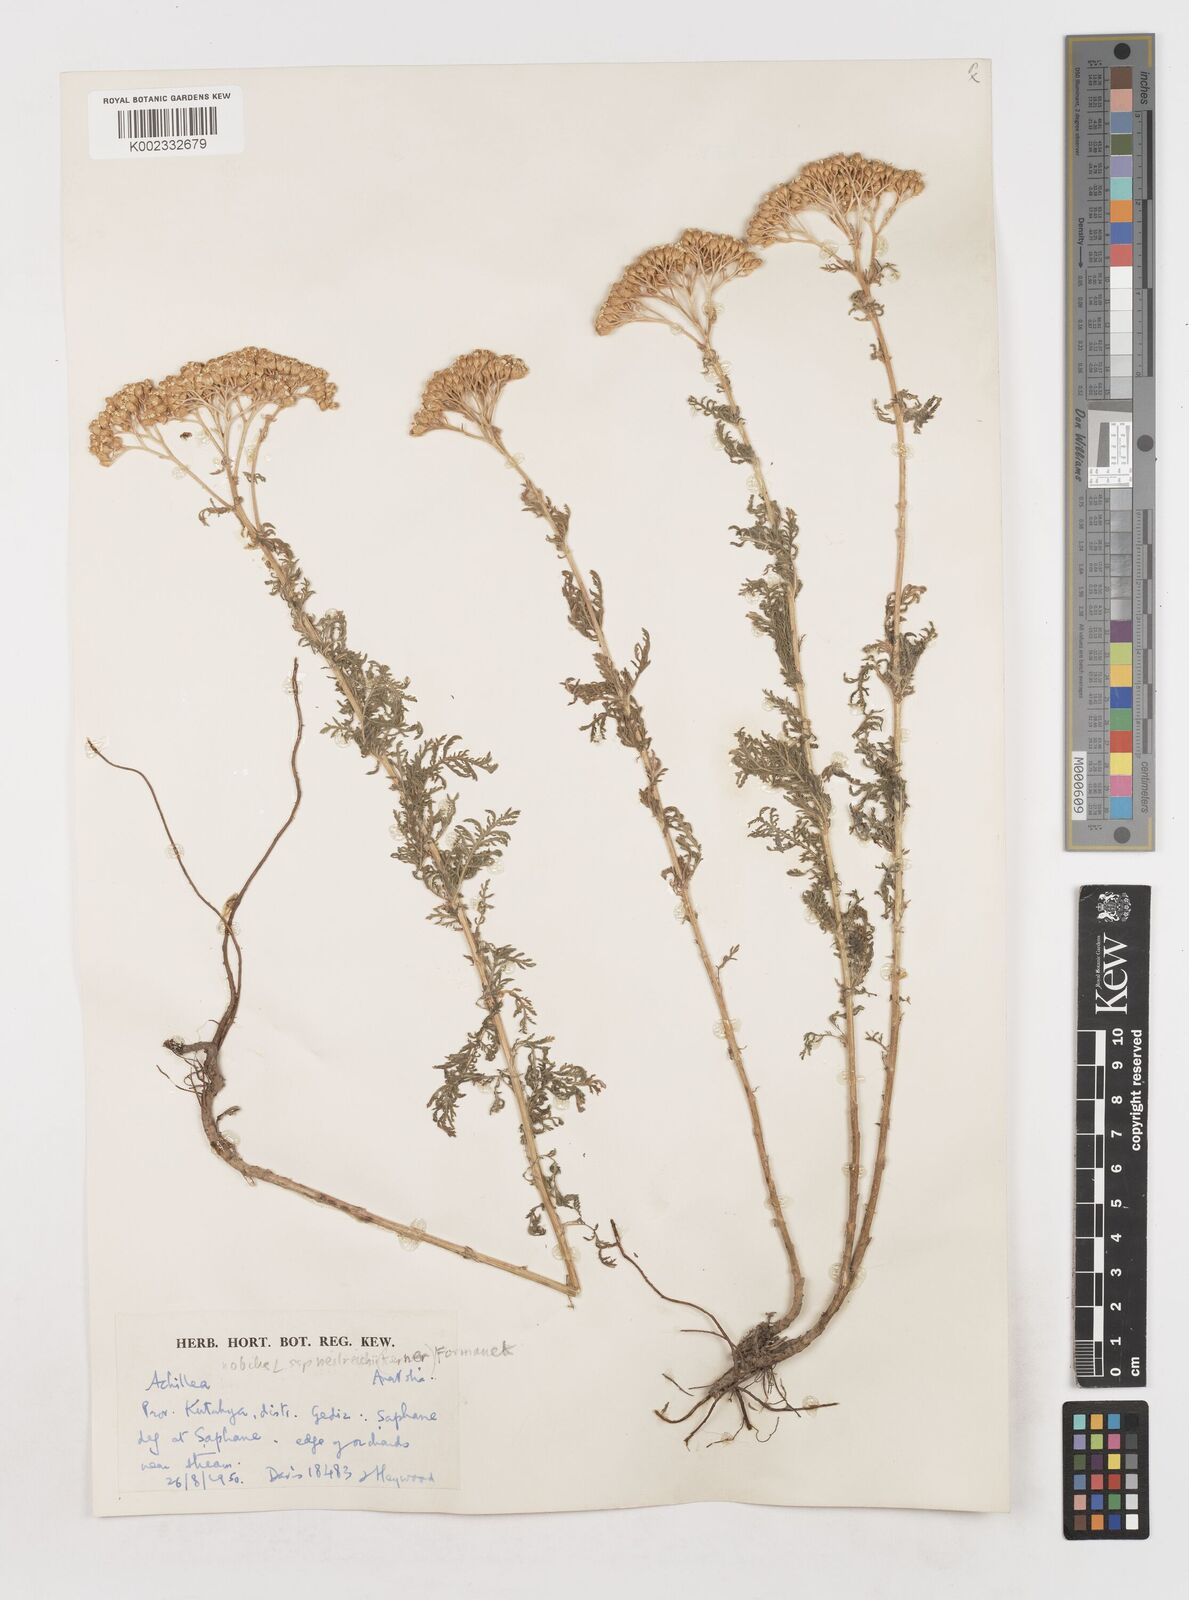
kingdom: Plantae
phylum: Tracheophyta
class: Magnoliopsida
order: Asterales
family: Asteraceae
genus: Achillea
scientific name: Achillea nobilis
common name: Noble yarrow
